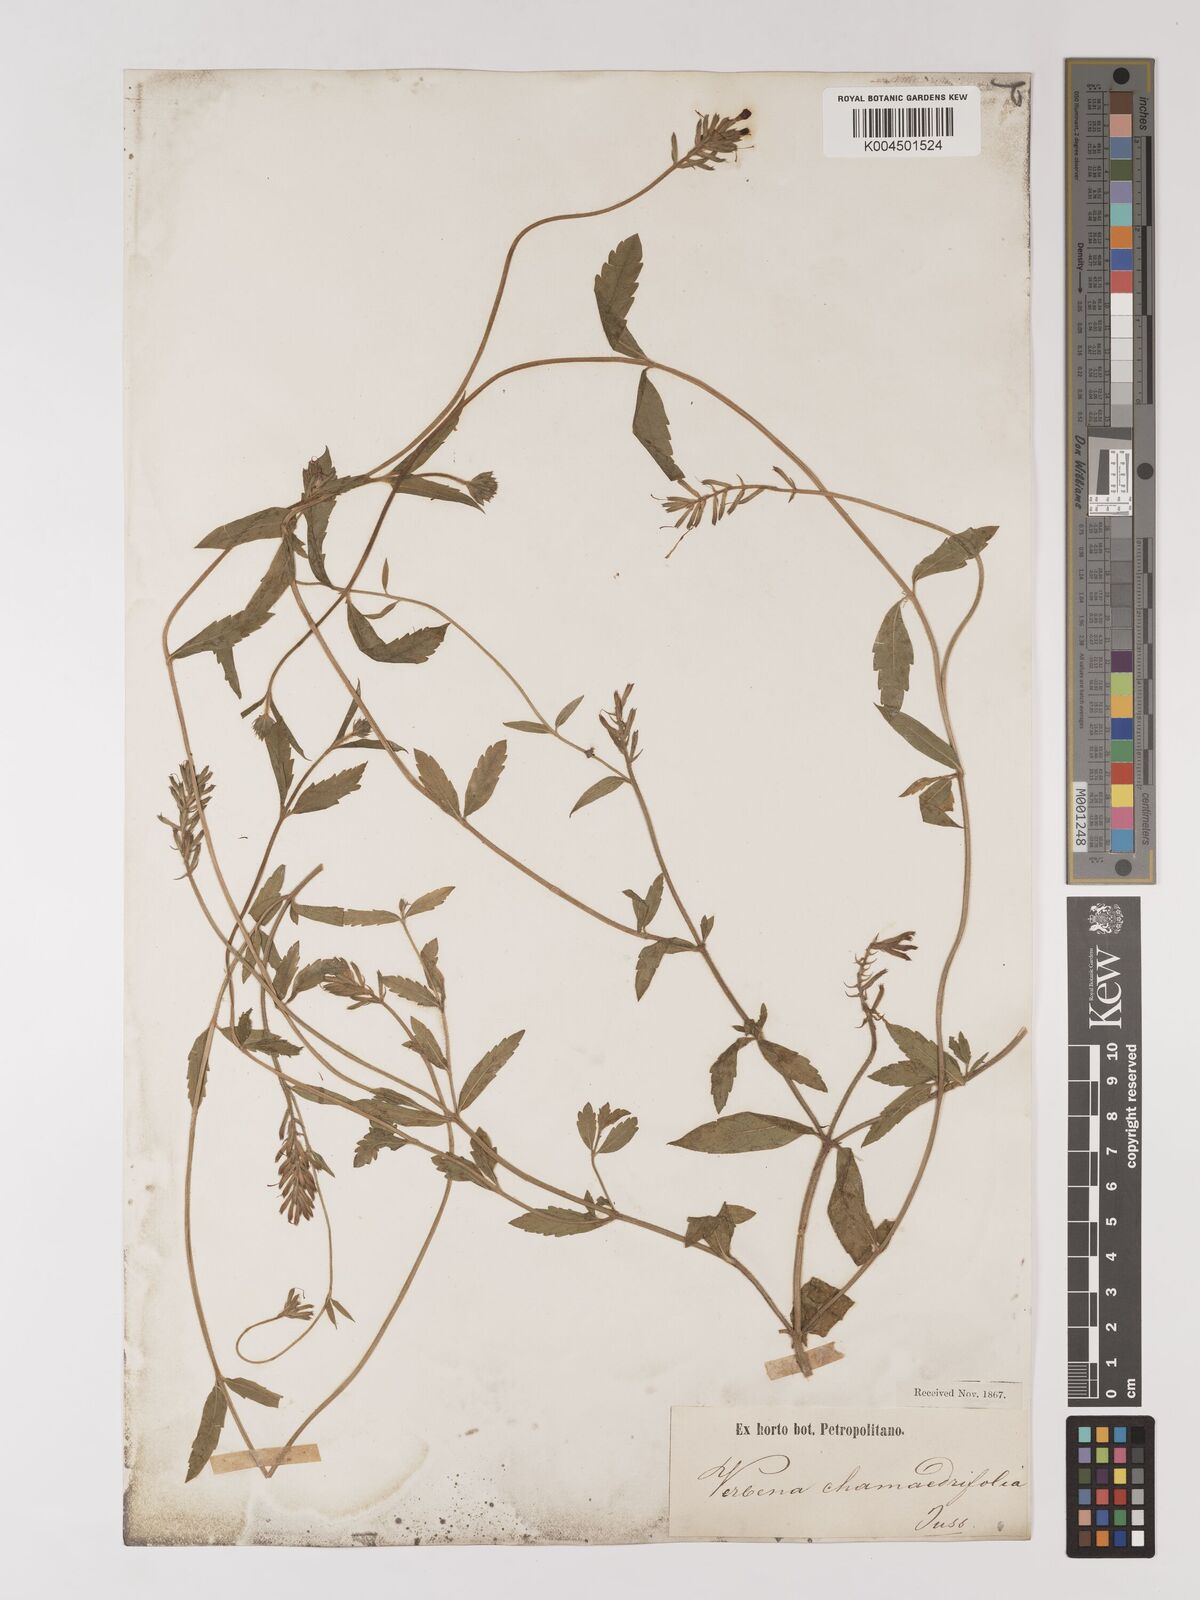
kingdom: Plantae
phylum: Tracheophyta
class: Magnoliopsida
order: Lamiales
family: Verbenaceae
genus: Verbena
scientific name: Verbena peruviana
